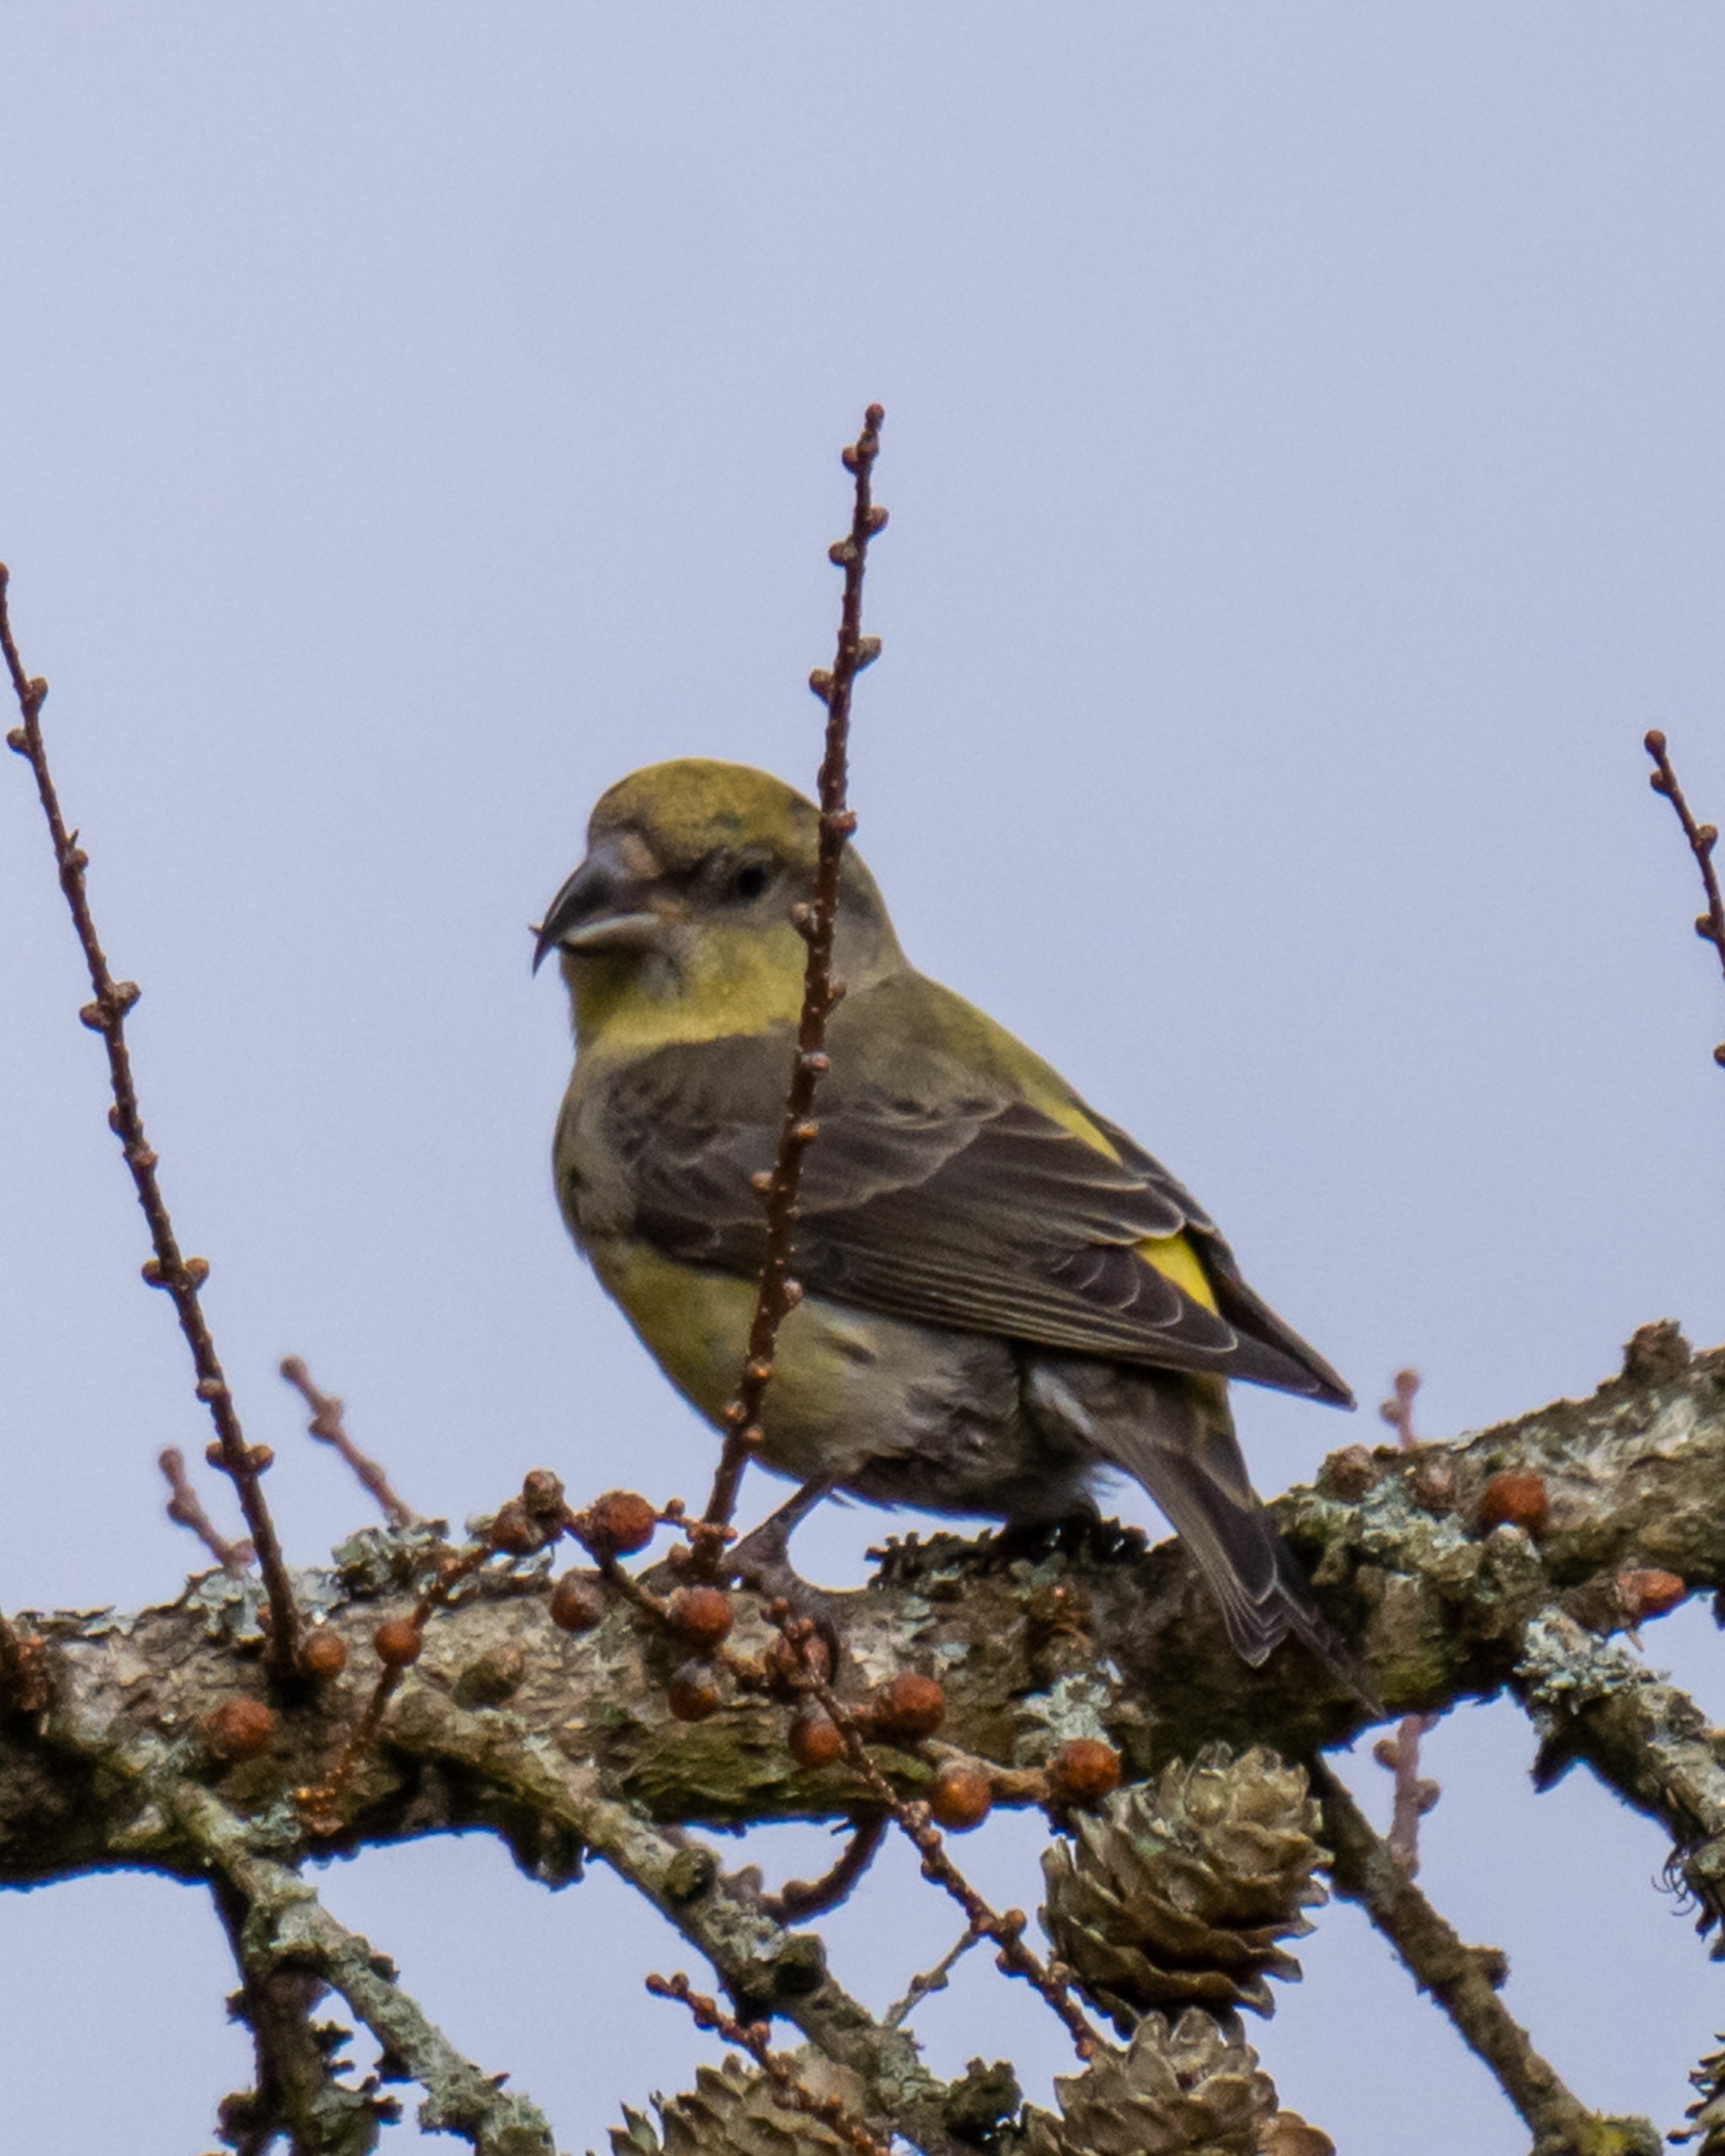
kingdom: Animalia
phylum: Chordata
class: Aves
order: Passeriformes
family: Fringillidae
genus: Loxia
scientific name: Loxia curvirostra
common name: Lille korsnæb
